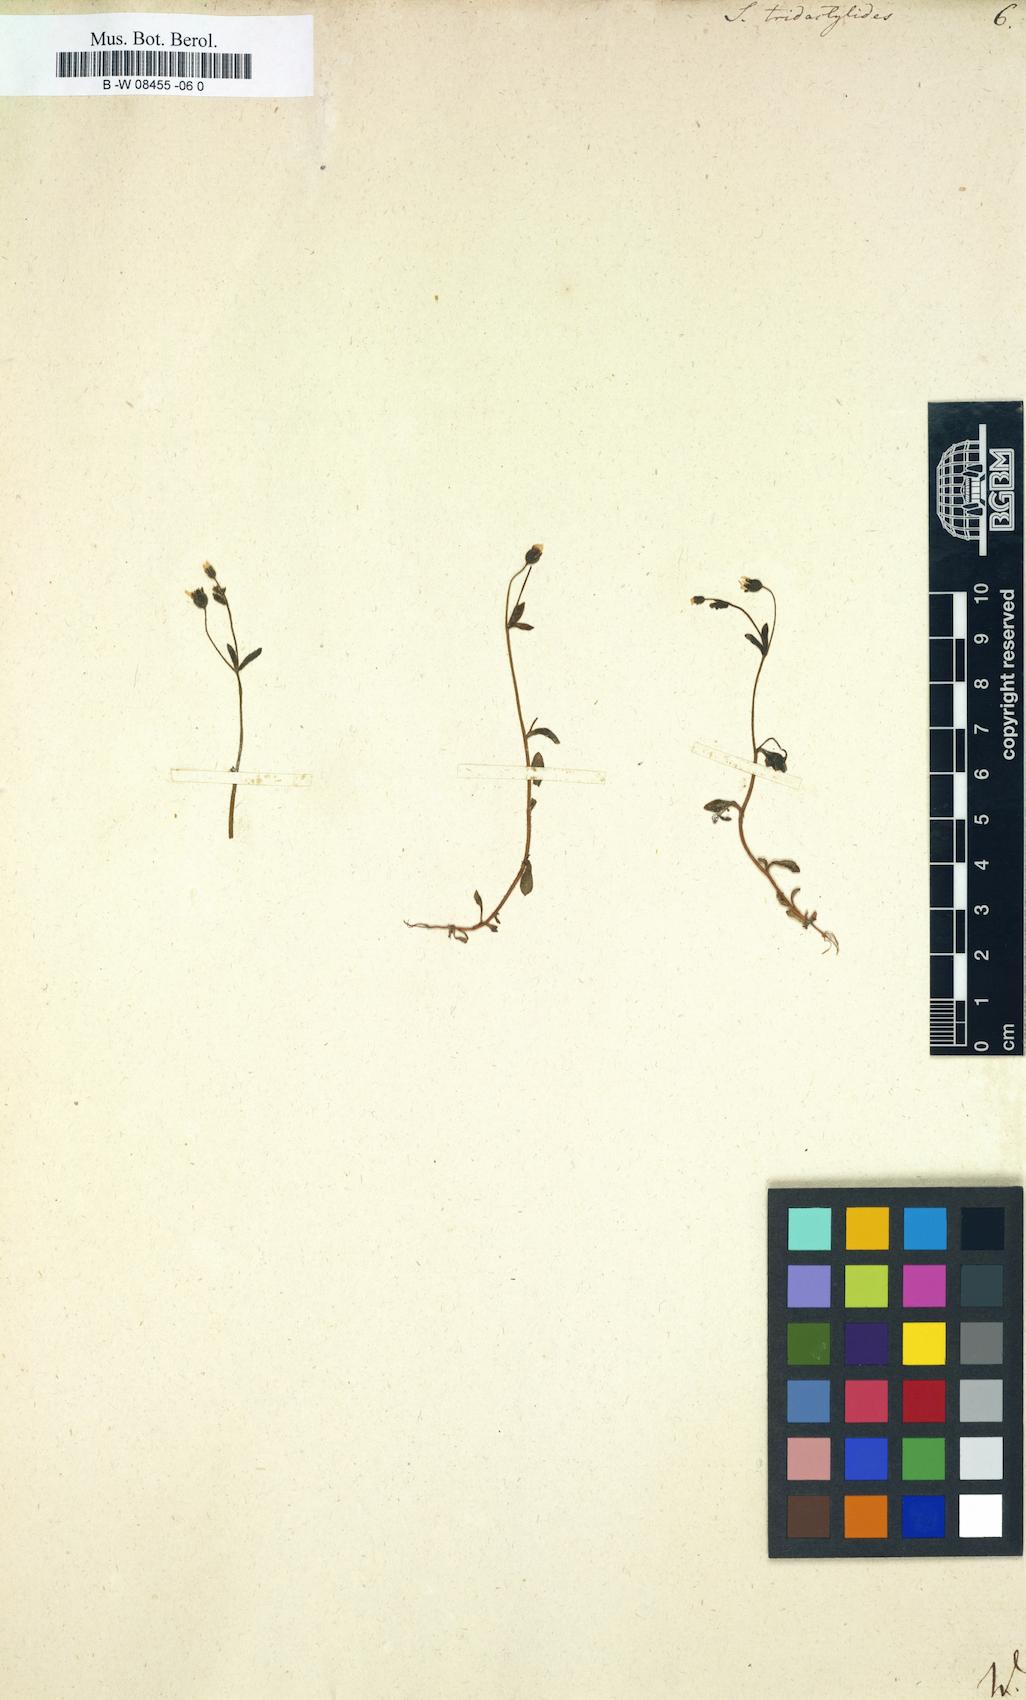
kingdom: Plantae
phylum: Tracheophyta
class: Magnoliopsida
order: Saxifragales
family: Saxifragaceae
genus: Saxifraga
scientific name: Saxifraga tridactylites
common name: Rue-leaved saxifrage
